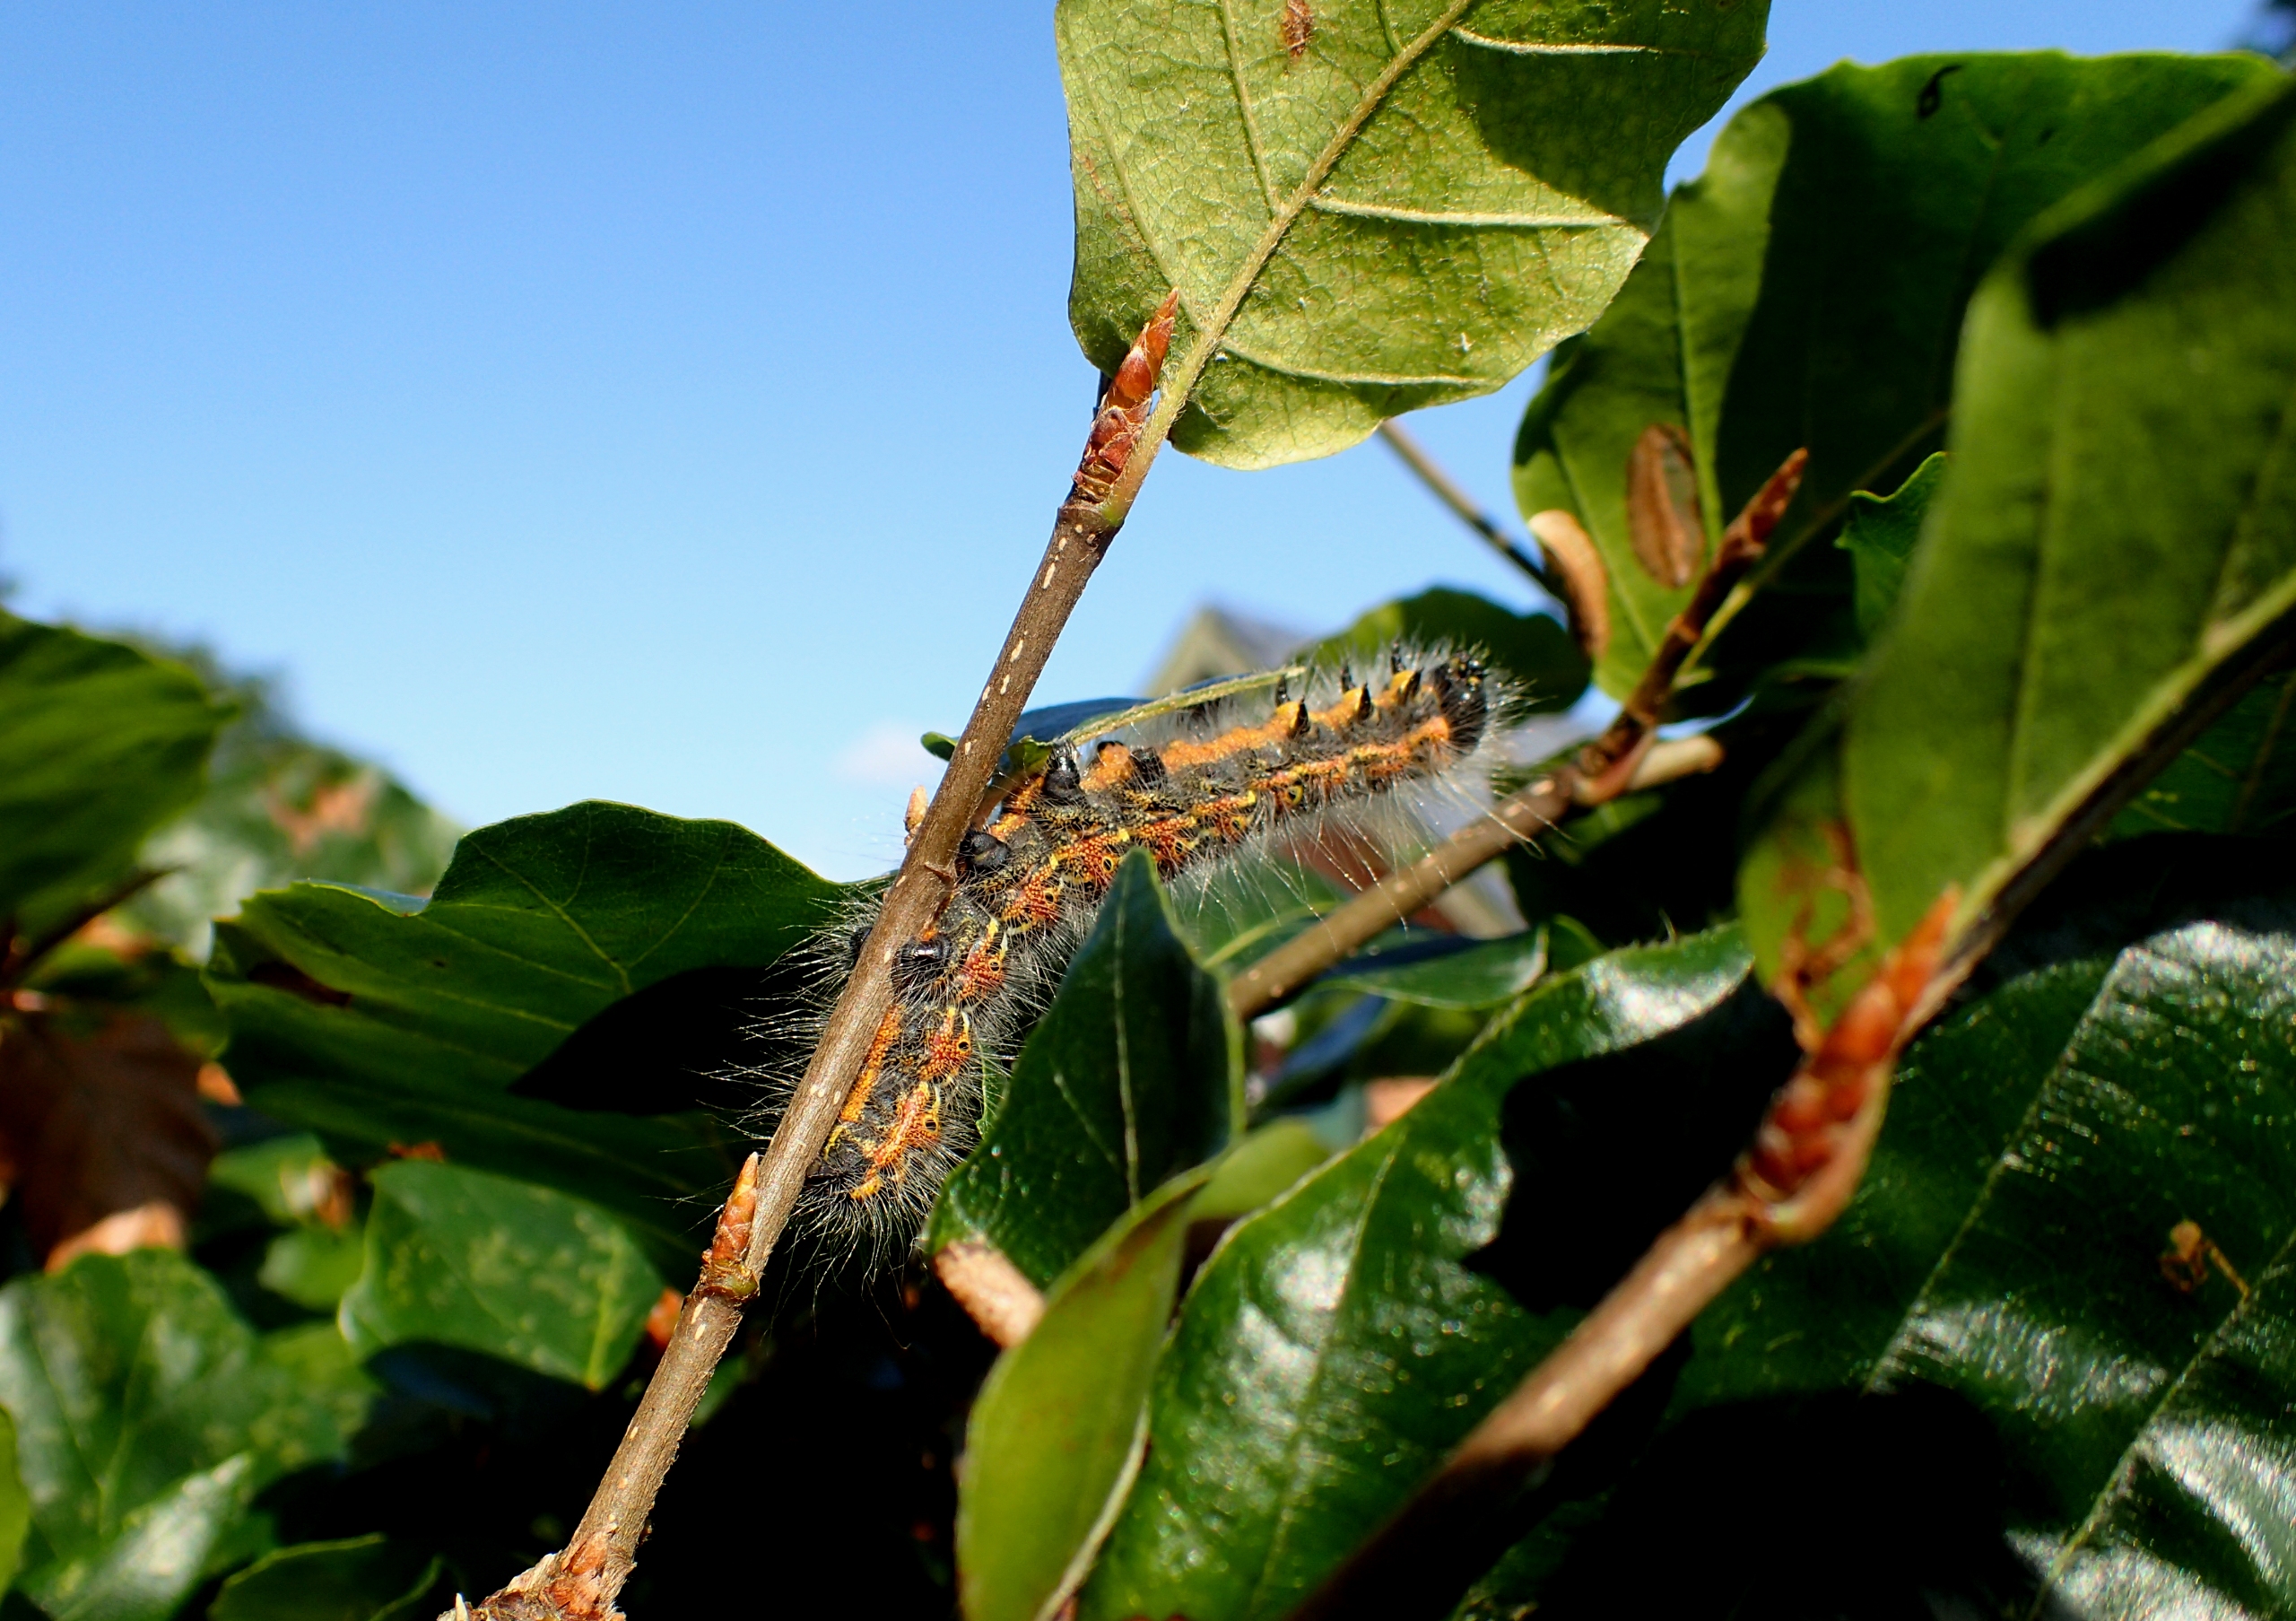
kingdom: Animalia
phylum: Arthropoda
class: Insecta
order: Lepidoptera
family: Notodontidae
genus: Phalera
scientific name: Phalera bucephala
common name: Måneplet
